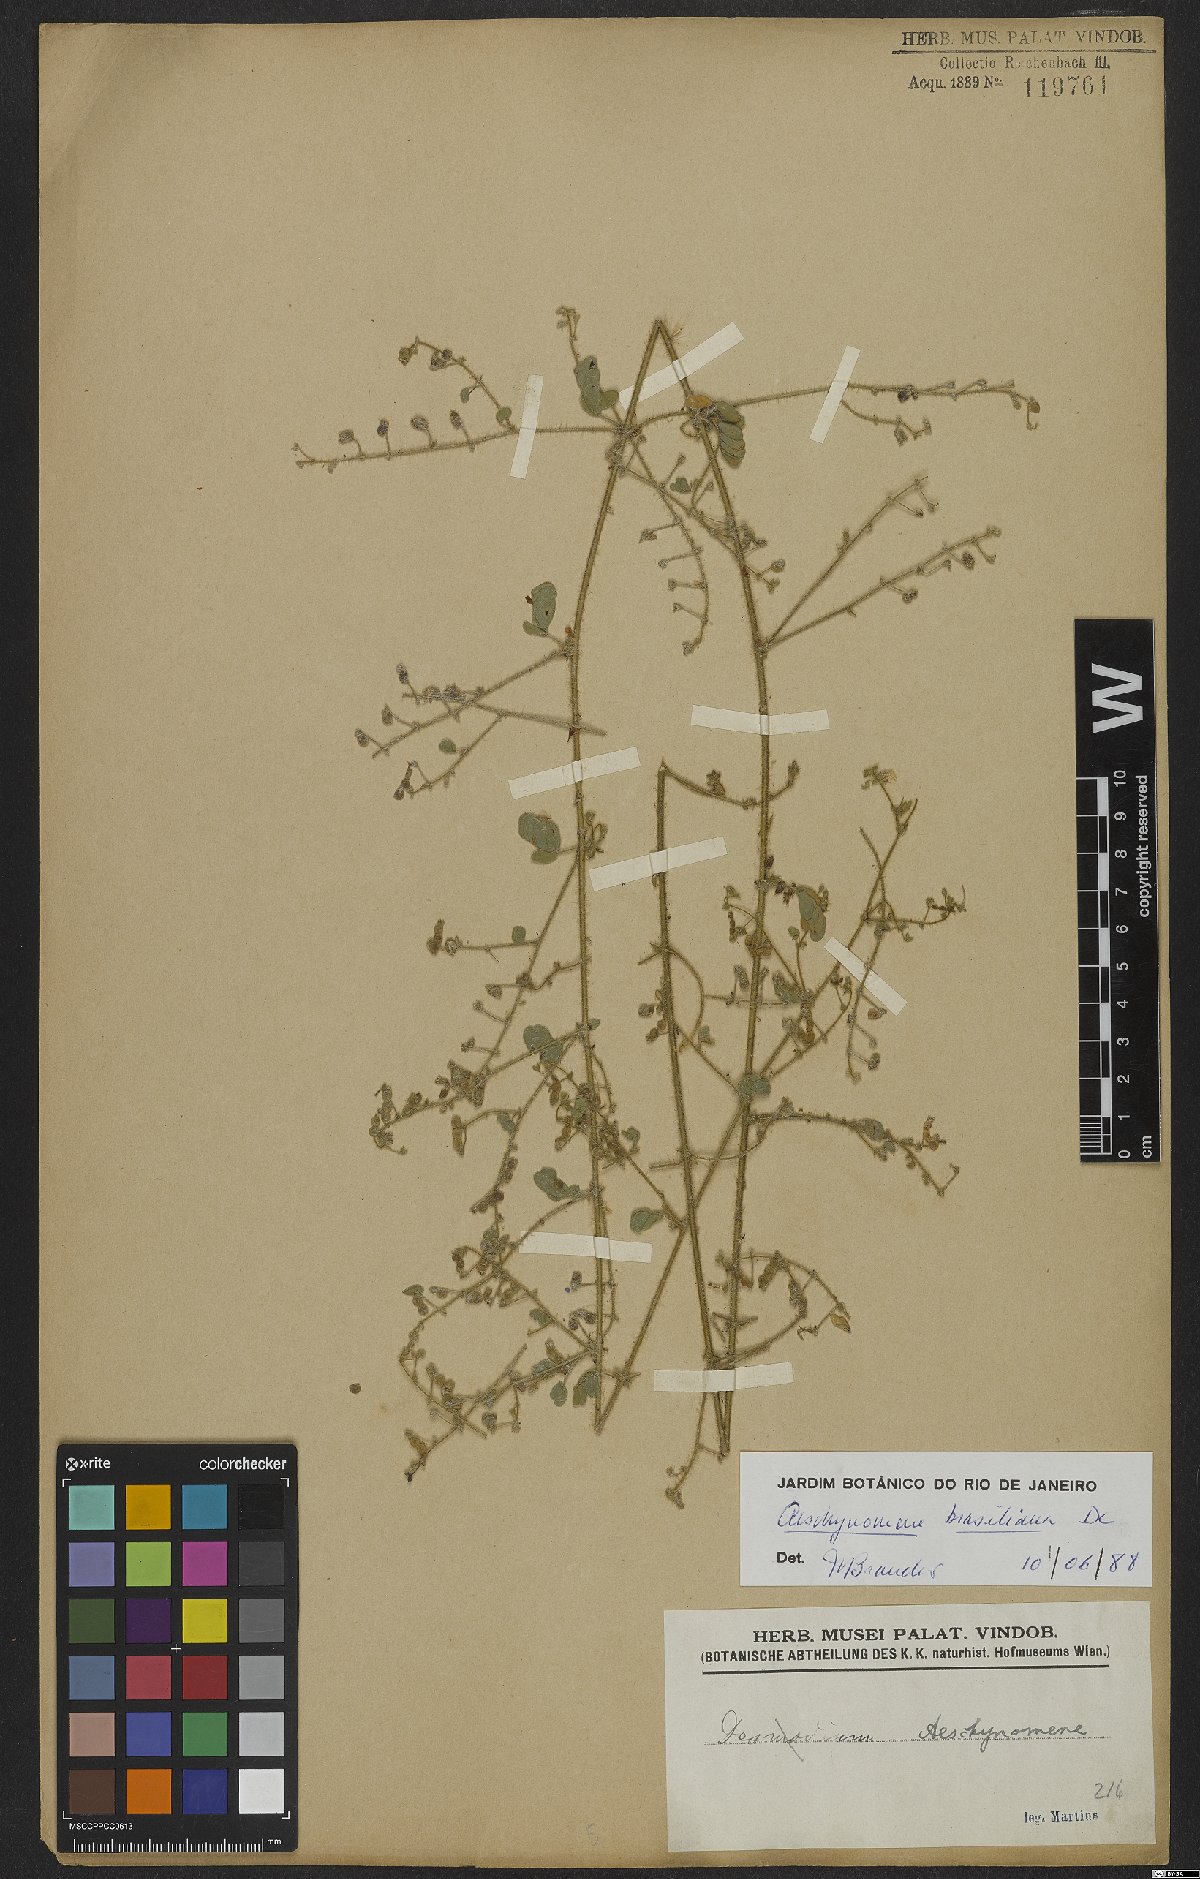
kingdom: Plantae
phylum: Tracheophyta
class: Magnoliopsida
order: Fabales
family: Fabaceae
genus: Ctenodon
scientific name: Ctenodon brasilianus
